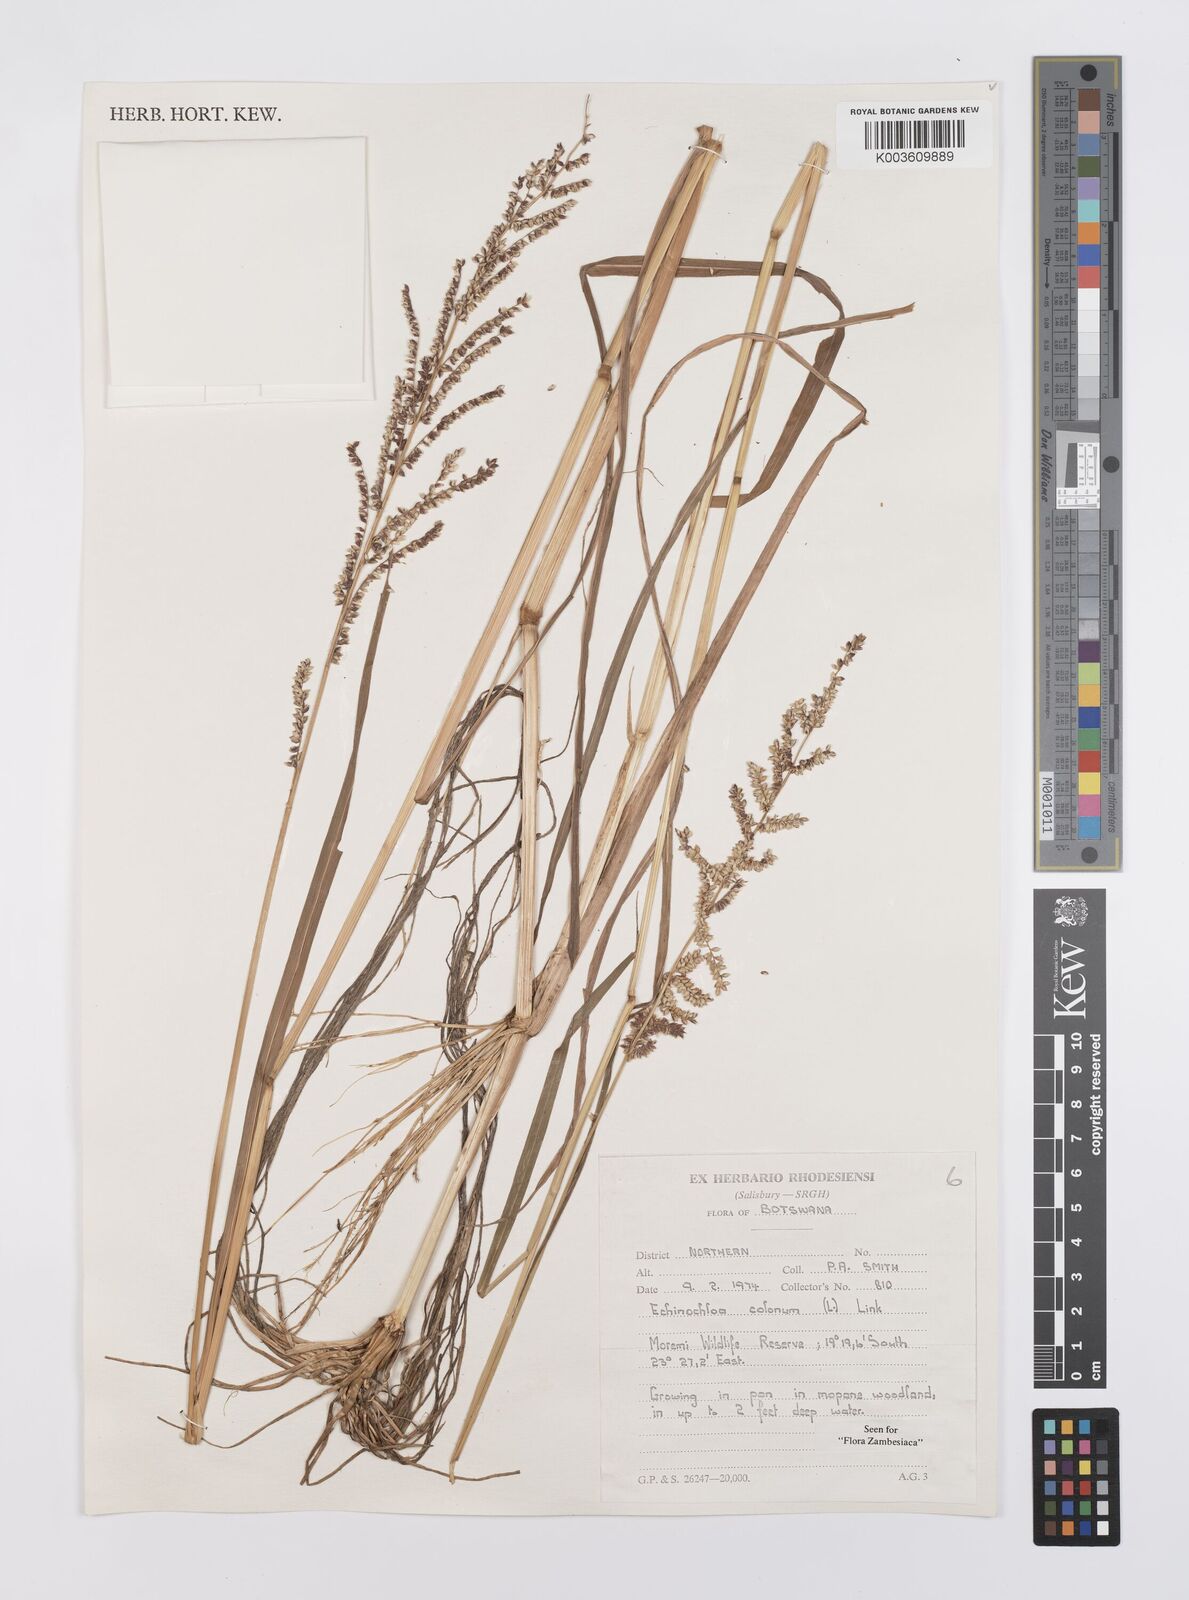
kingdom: Plantae
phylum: Tracheophyta
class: Liliopsida
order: Poales
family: Poaceae
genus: Echinochloa
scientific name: Echinochloa colonum
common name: Jungle rice
